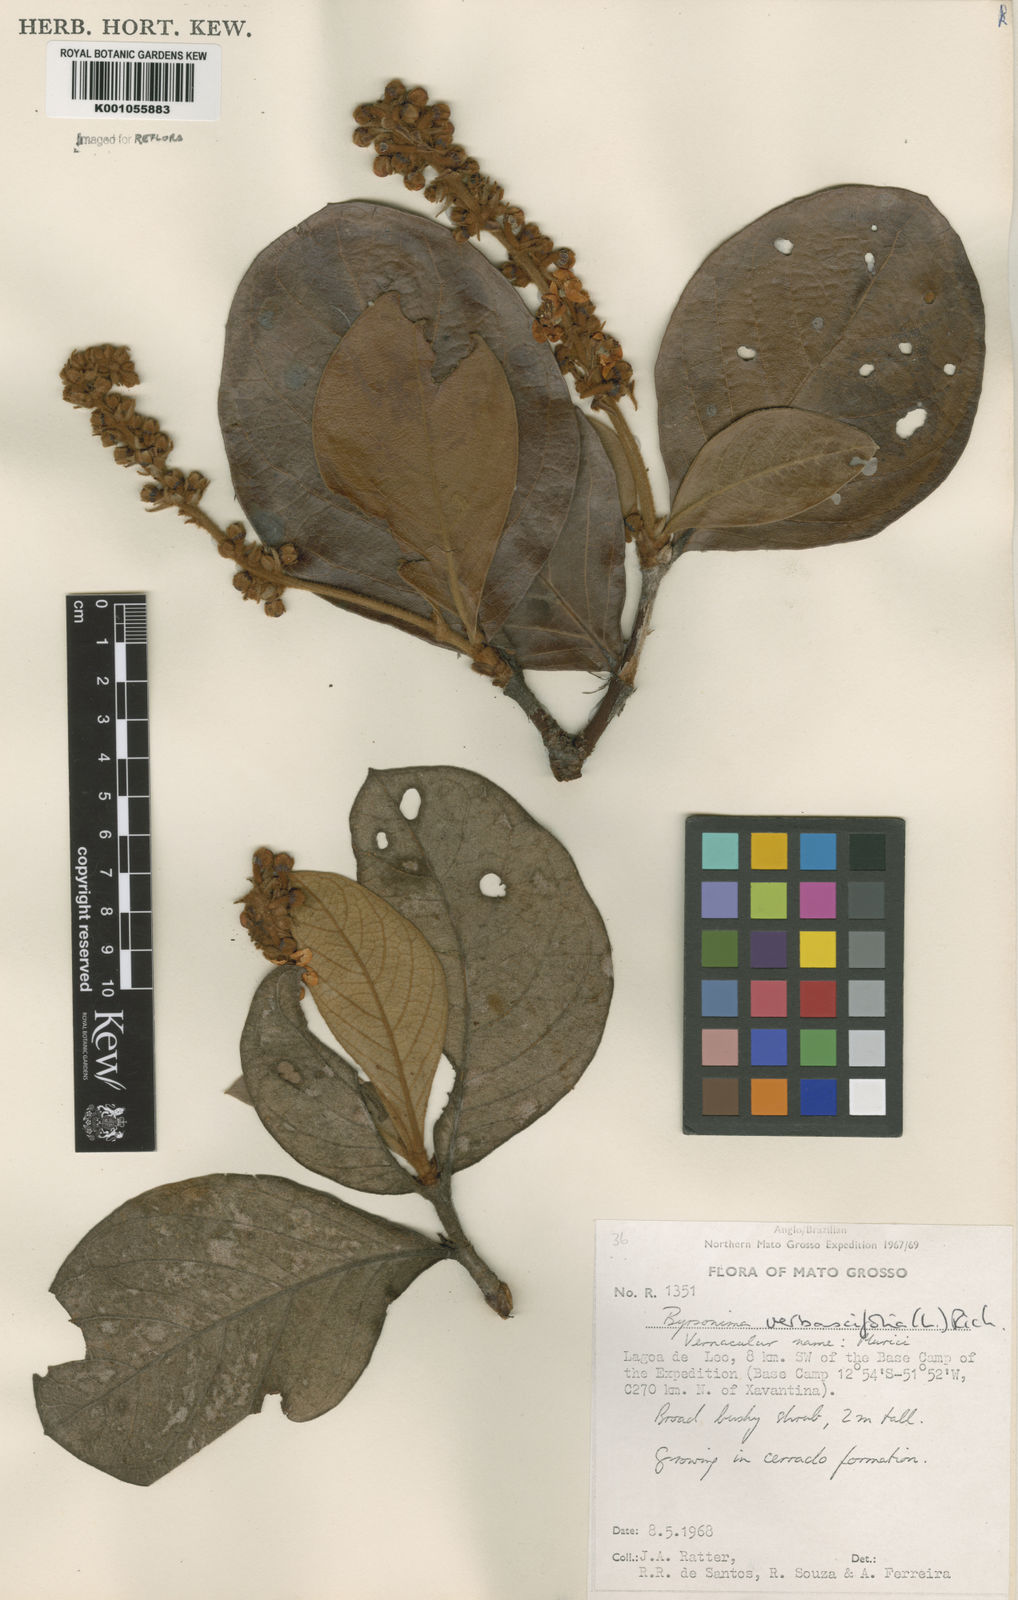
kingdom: Plantae
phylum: Tracheophyta
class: Magnoliopsida
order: Malpighiales
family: Malpighiaceae
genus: Byrsonima
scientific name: Byrsonima verbascifolia
